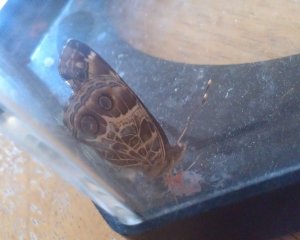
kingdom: Animalia
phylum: Arthropoda
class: Insecta
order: Lepidoptera
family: Nymphalidae
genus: Vanessa
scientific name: Vanessa virginiensis
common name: American Lady
